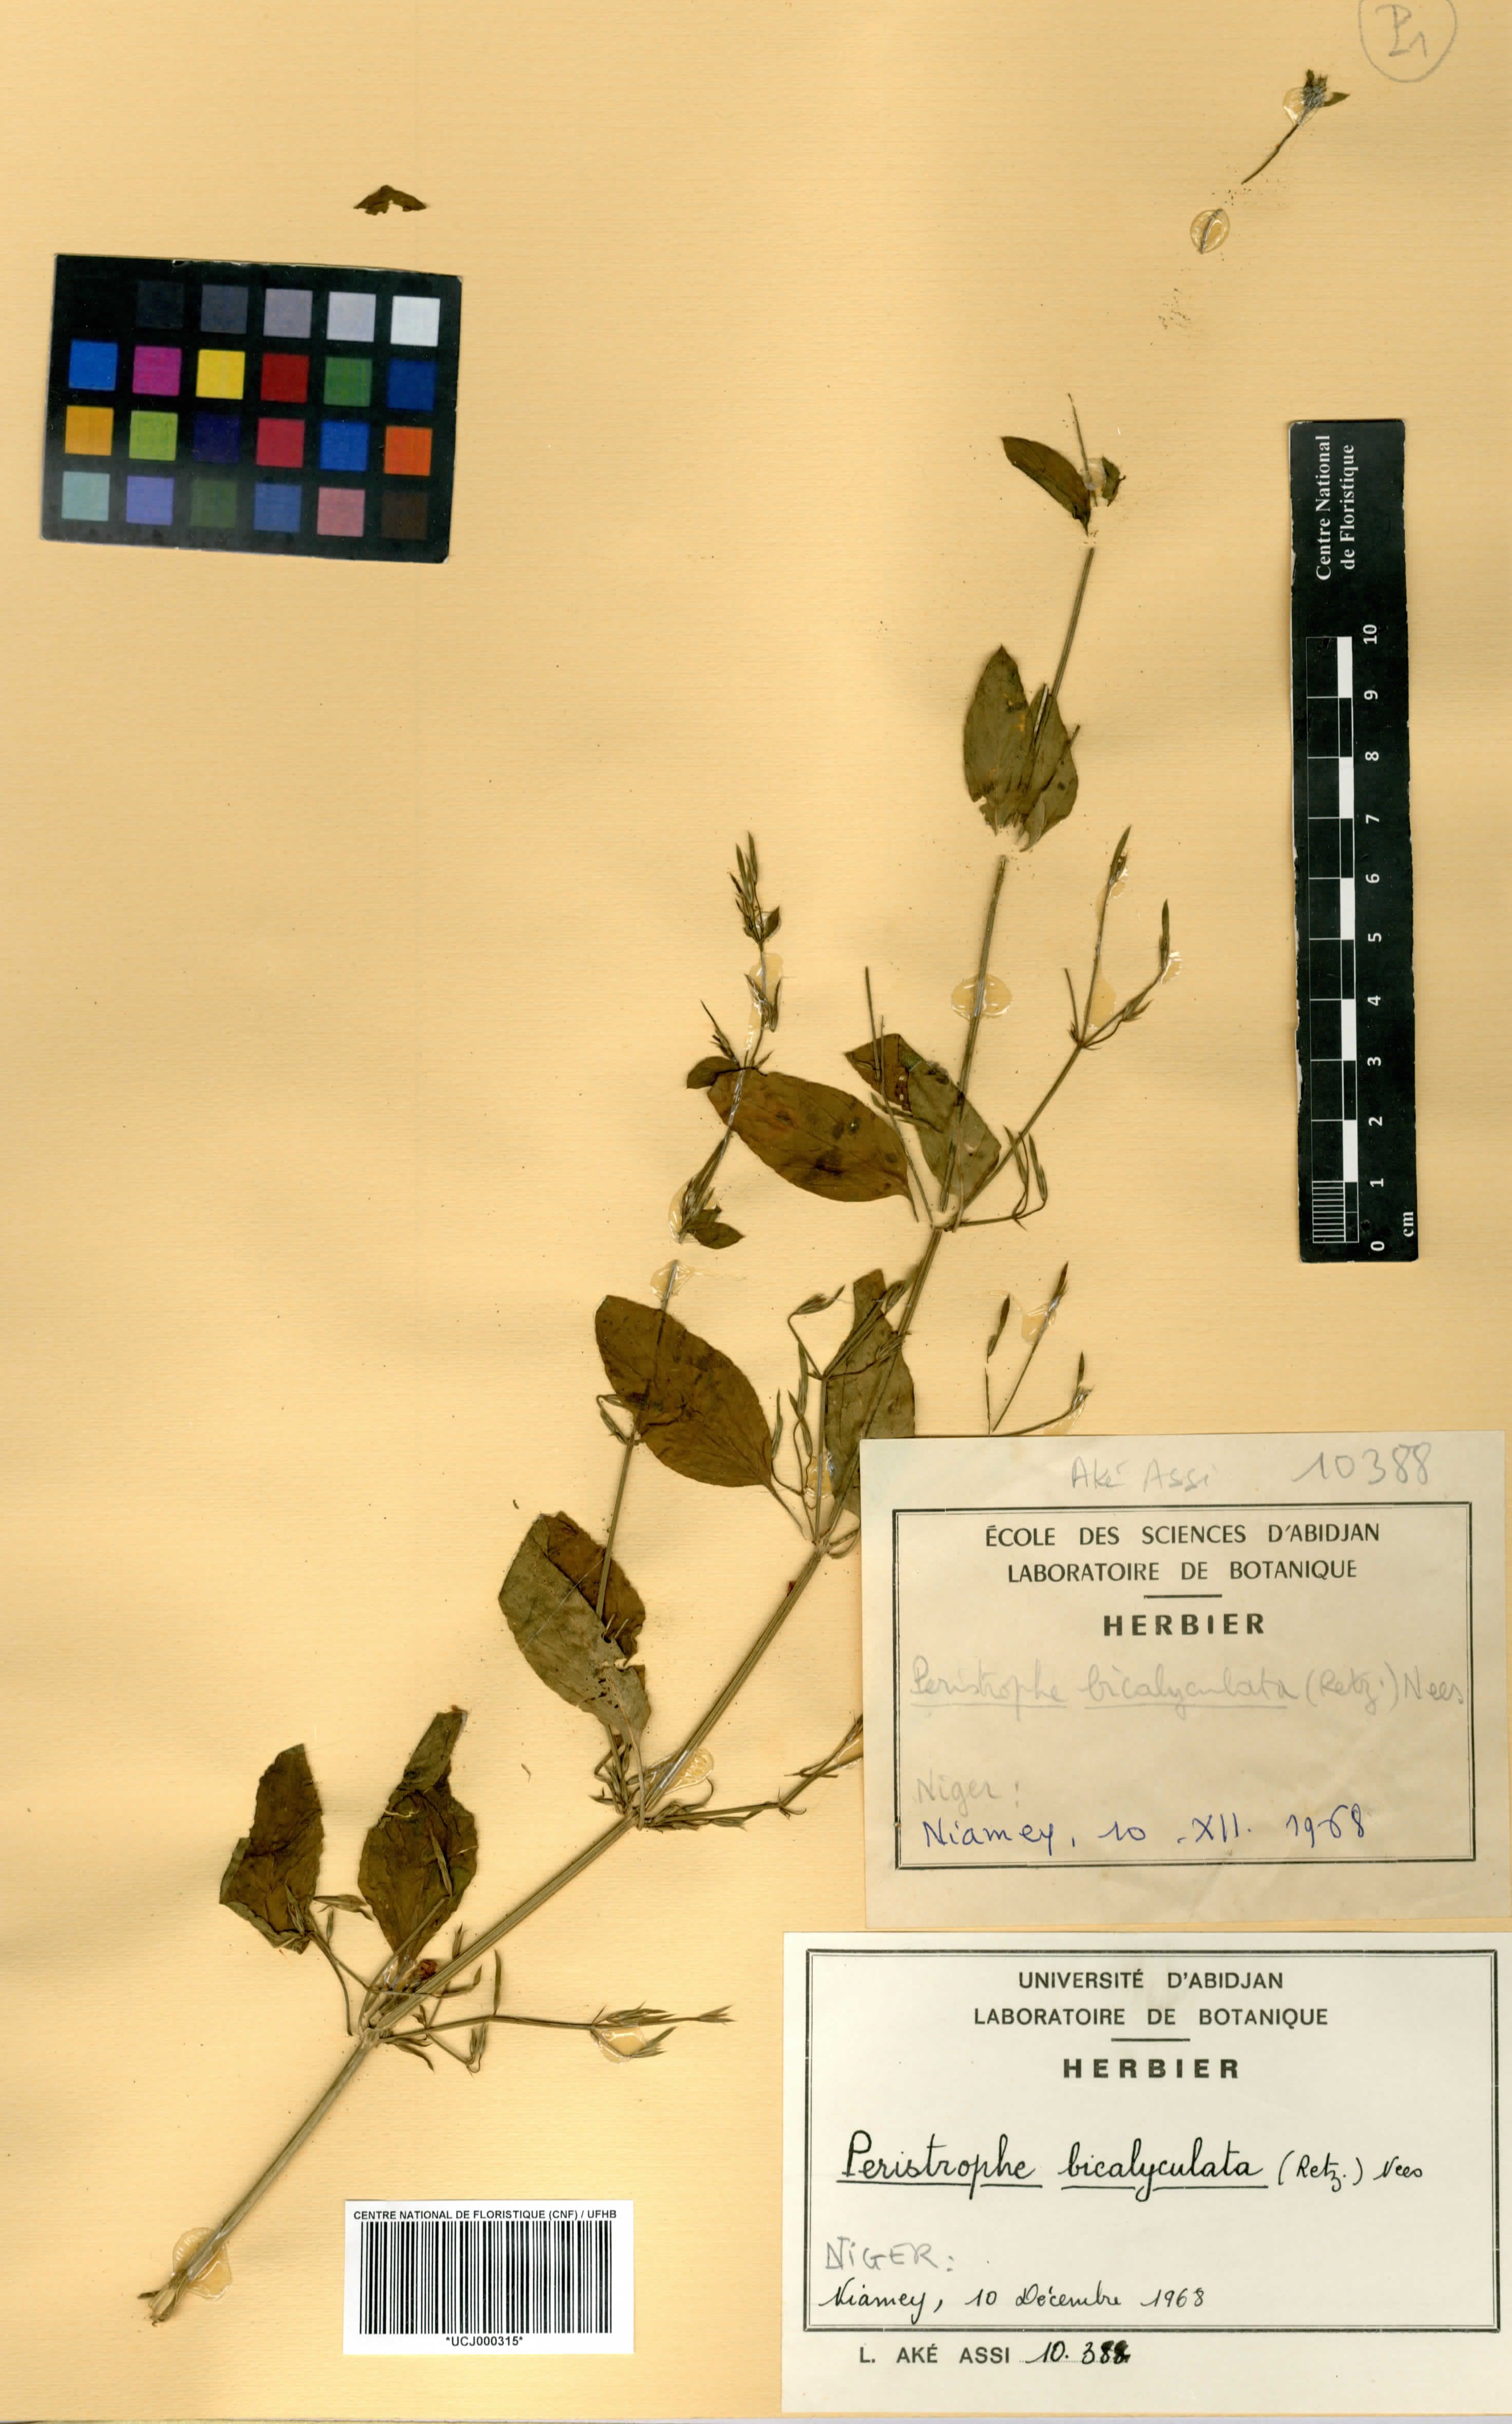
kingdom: Plantae
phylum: Tracheophyta
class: Magnoliopsida
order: Lamiales
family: Acanthaceae
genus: Dicliptera
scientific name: Dicliptera paniculata
